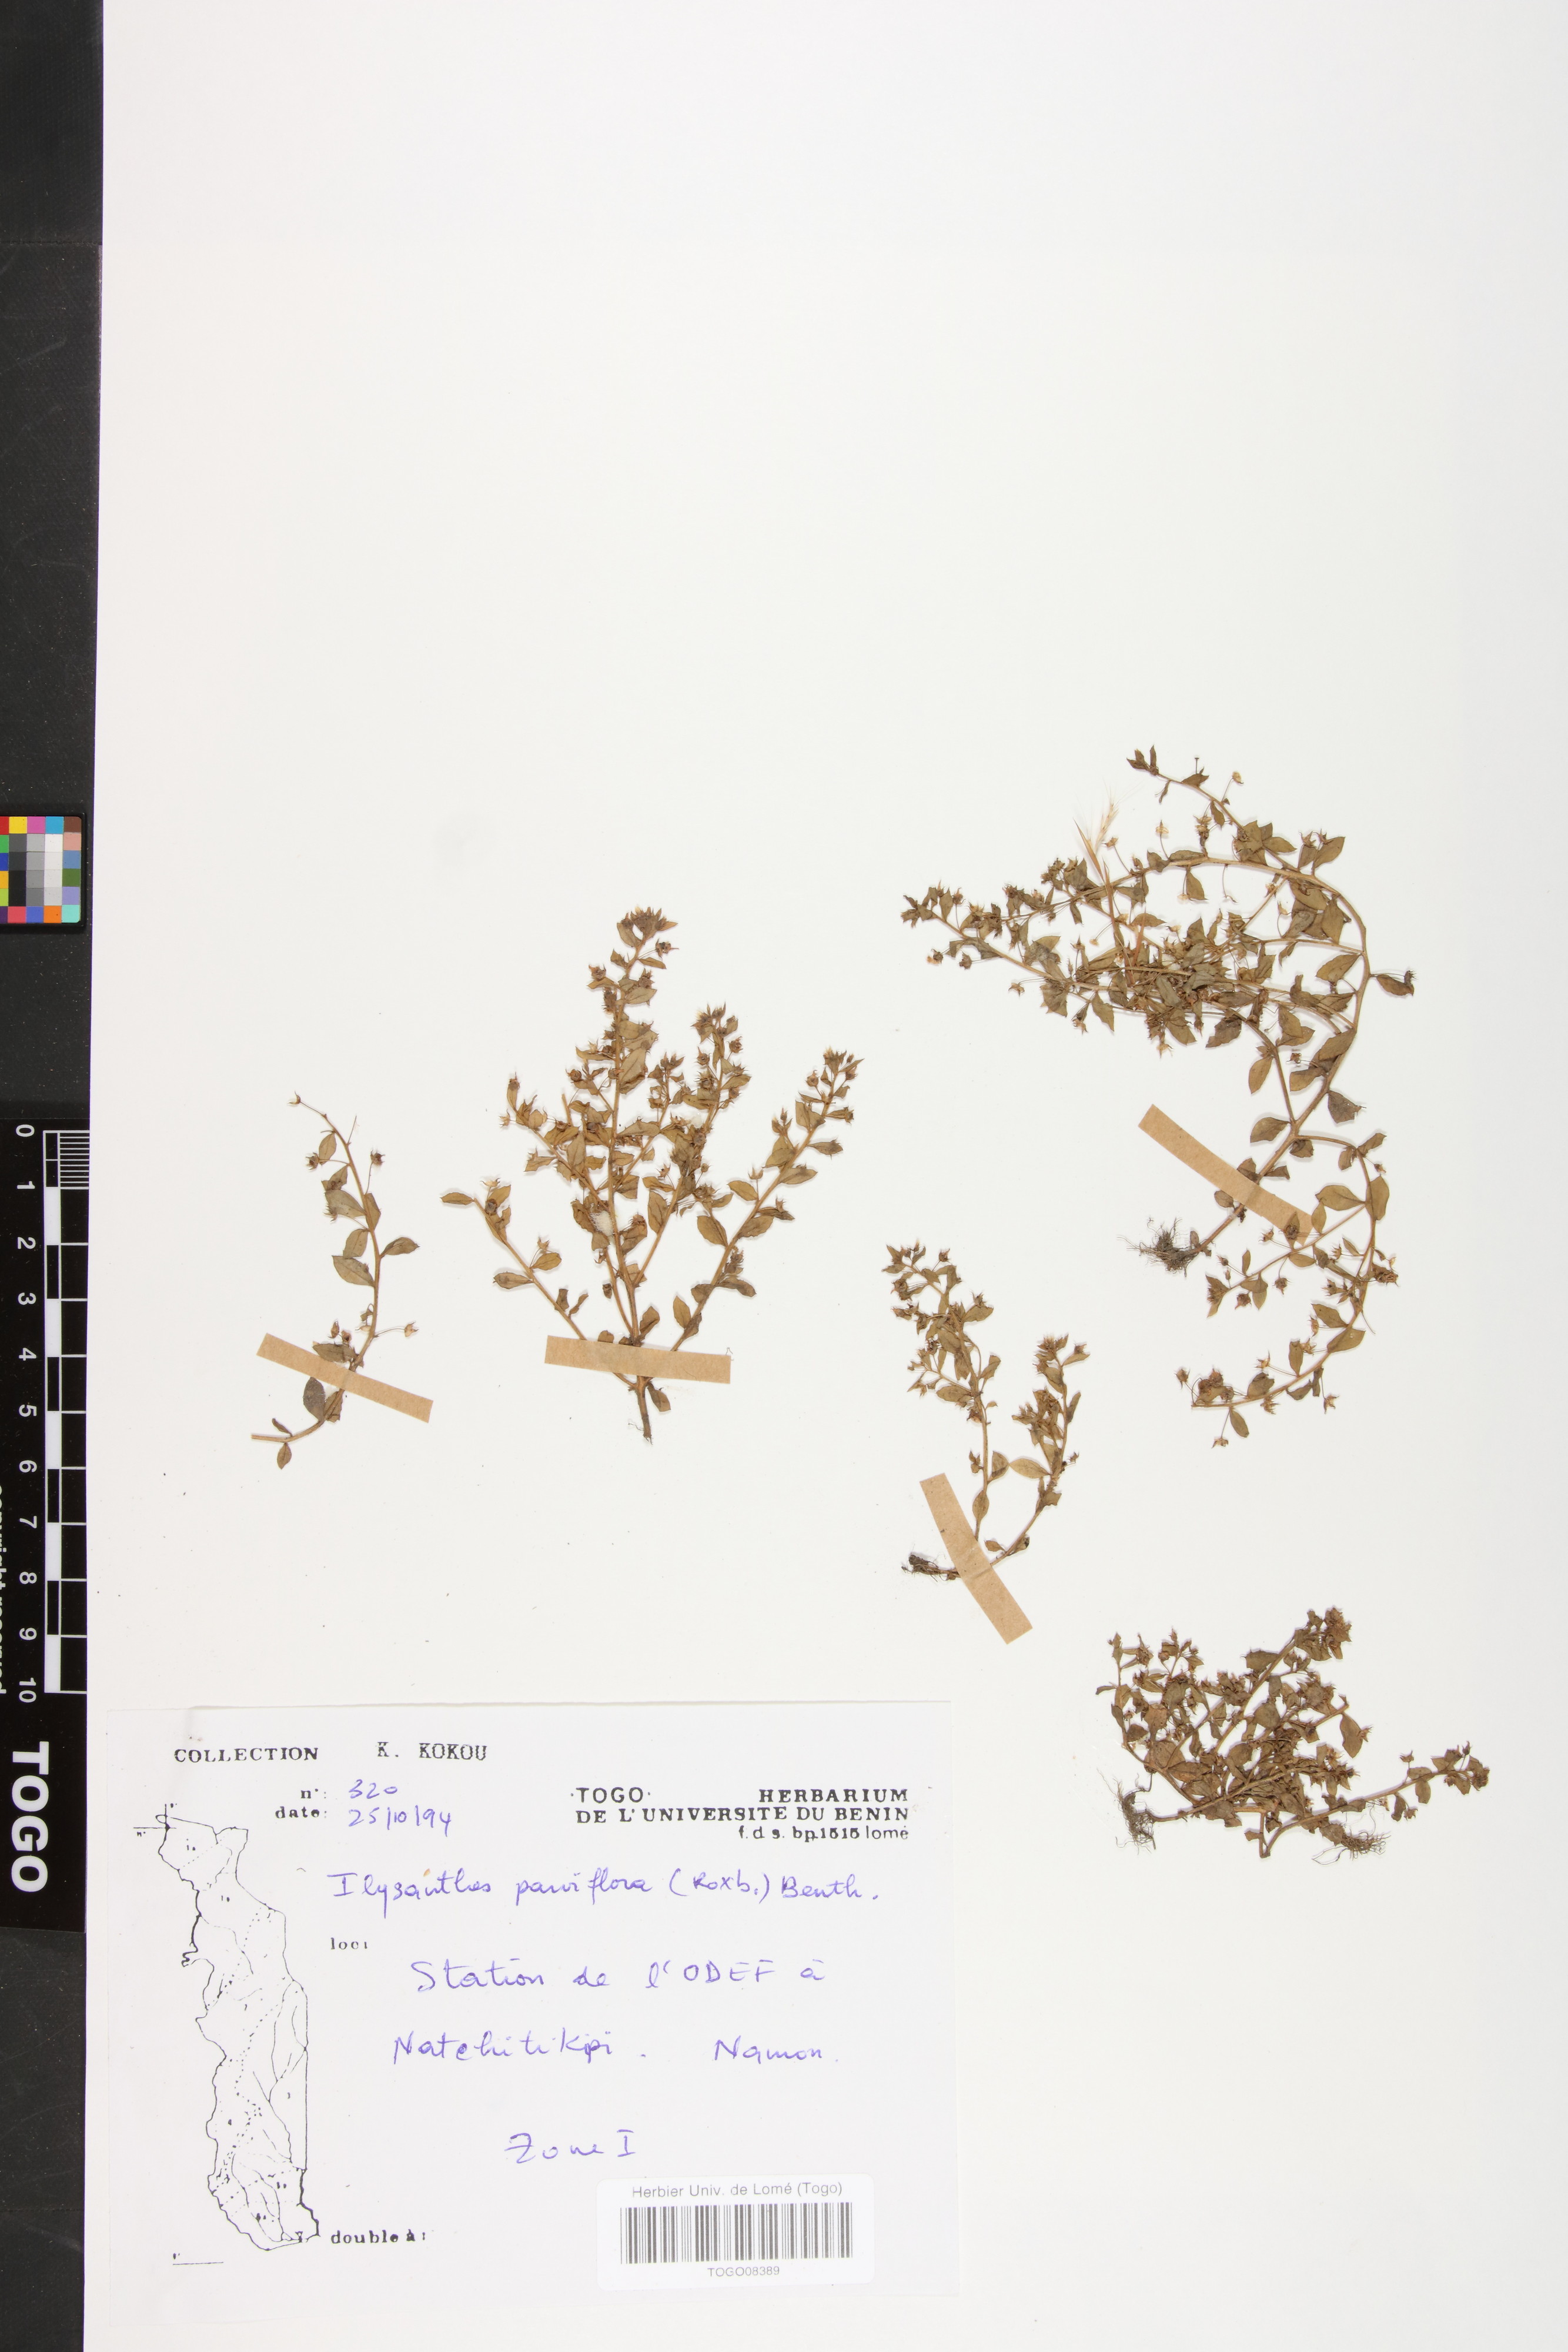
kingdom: Plantae
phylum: Tracheophyta
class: Magnoliopsida
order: Lamiales
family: Linderniaceae
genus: Lindernia
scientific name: Lindernia parviflora
